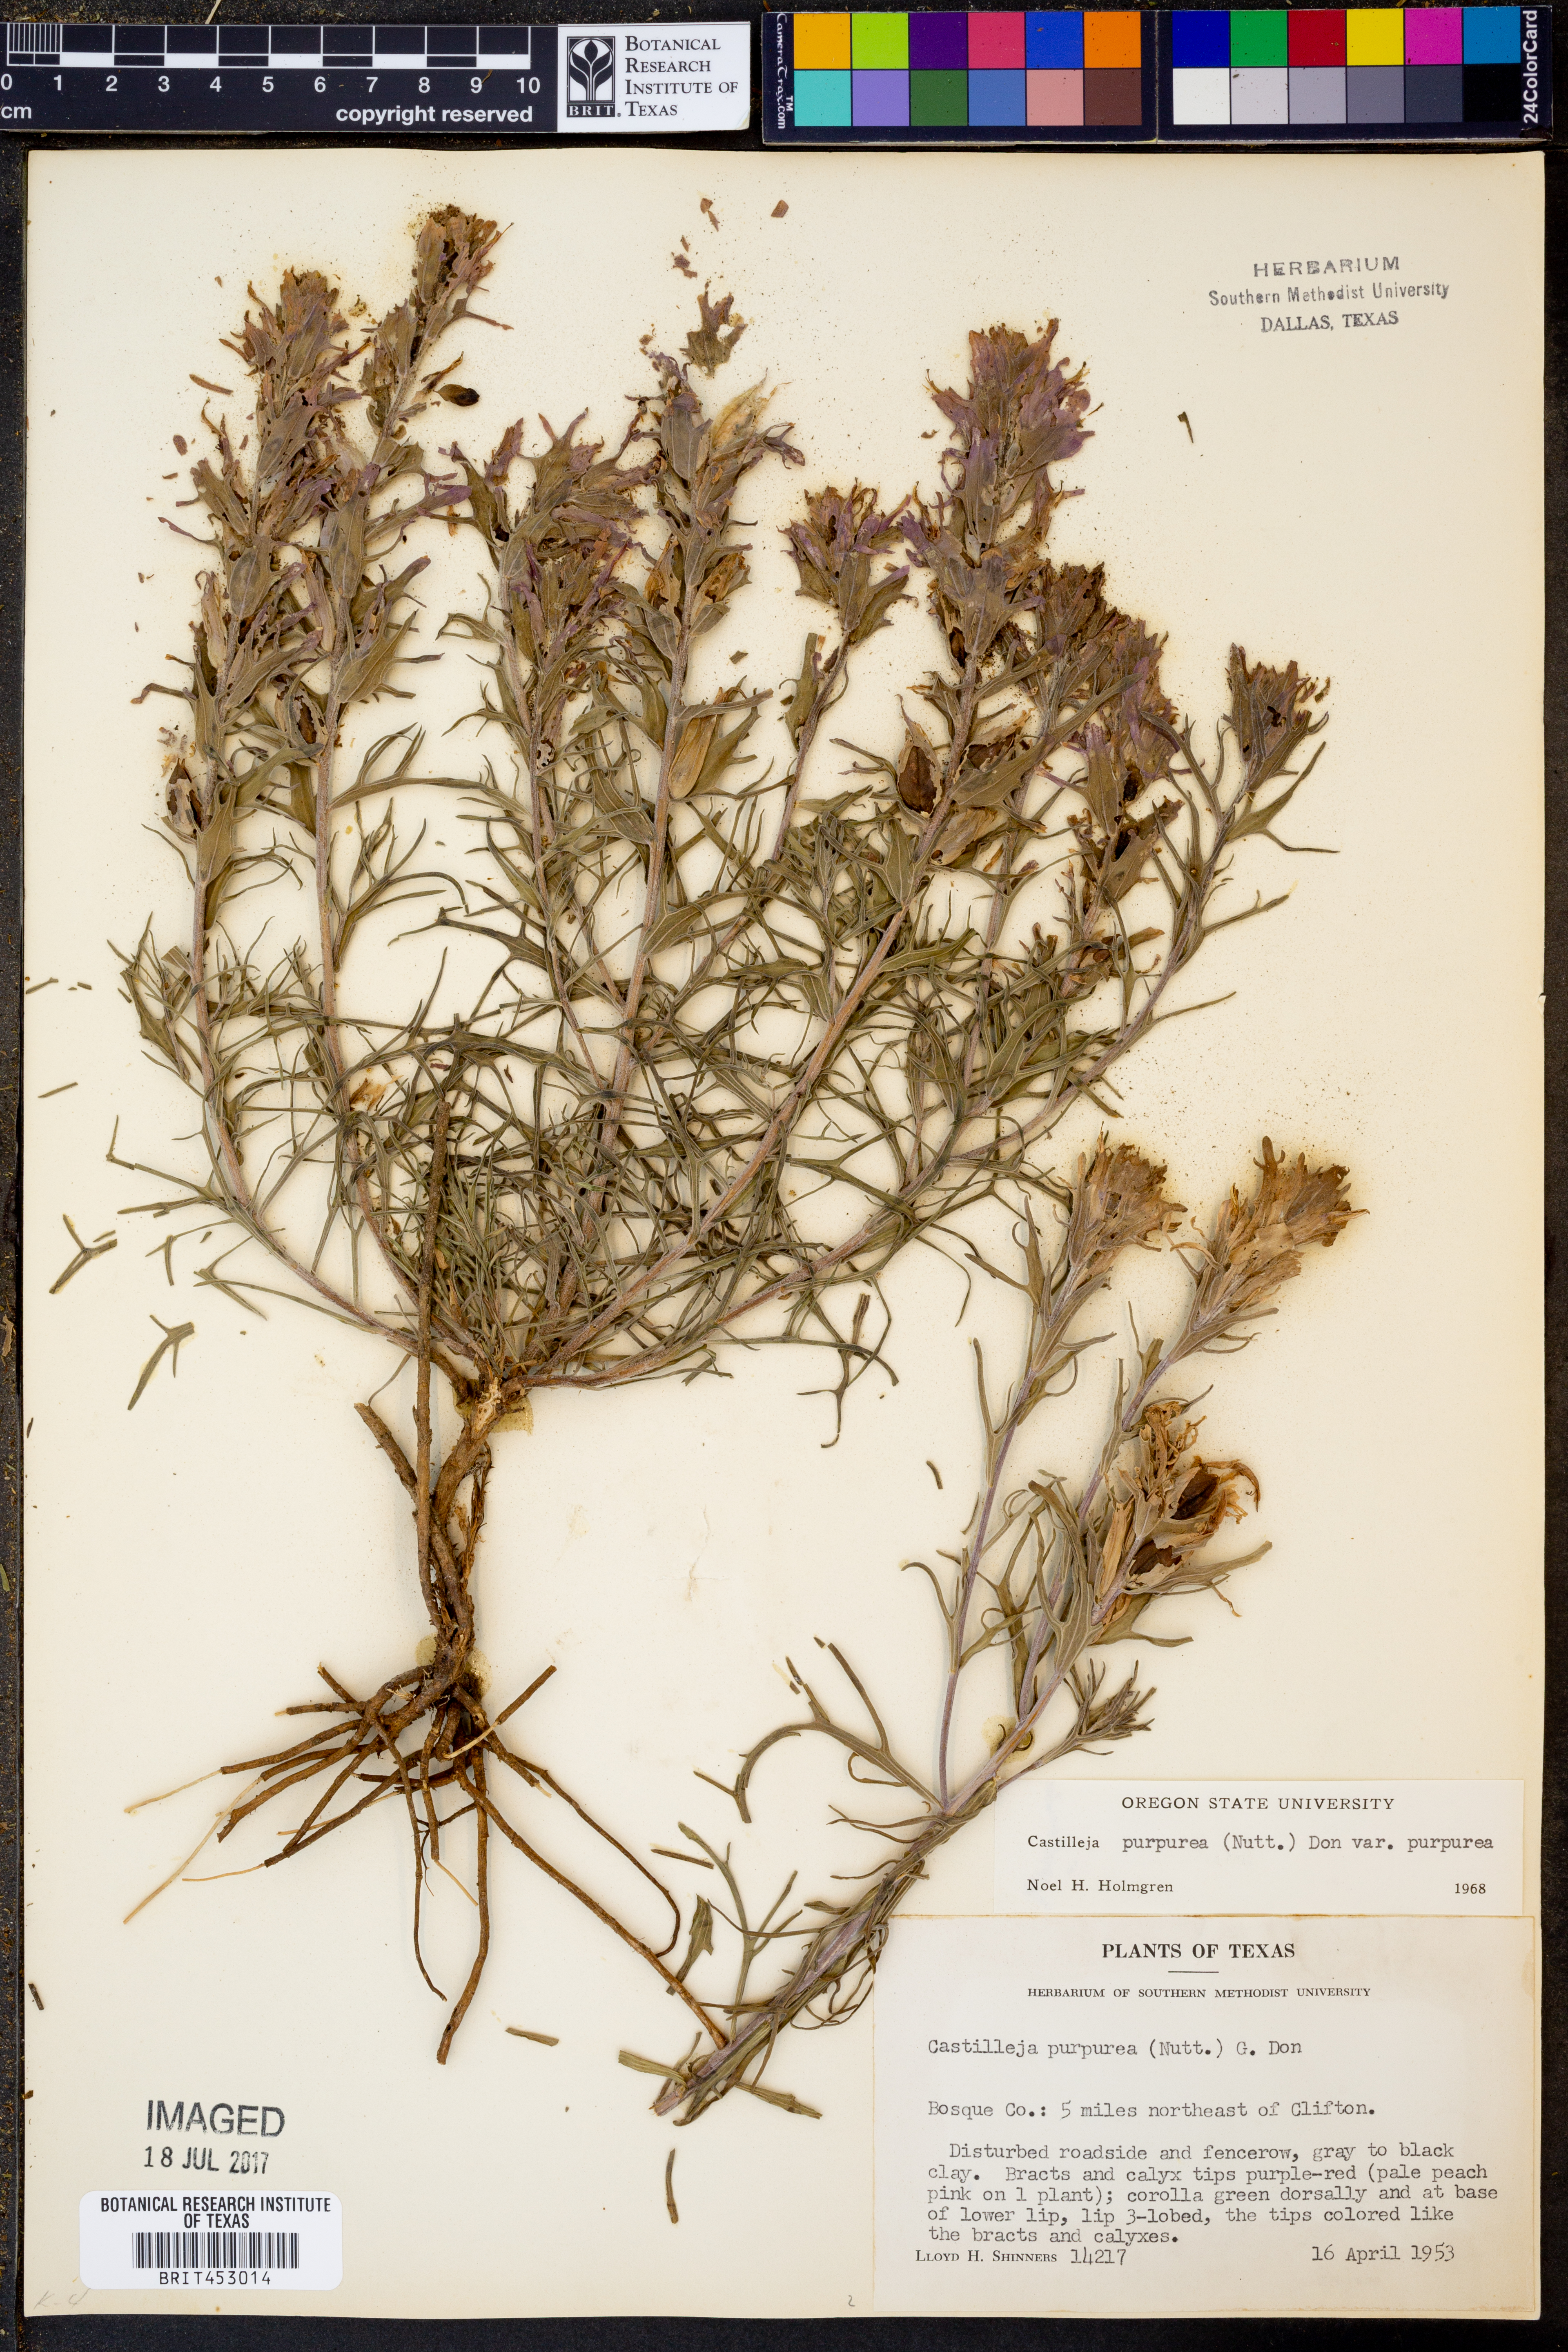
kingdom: Plantae
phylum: Tracheophyta
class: Magnoliopsida
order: Lamiales
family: Orobanchaceae
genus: Castilleja
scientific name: Castilleja purpurea
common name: Plains paintbrush
